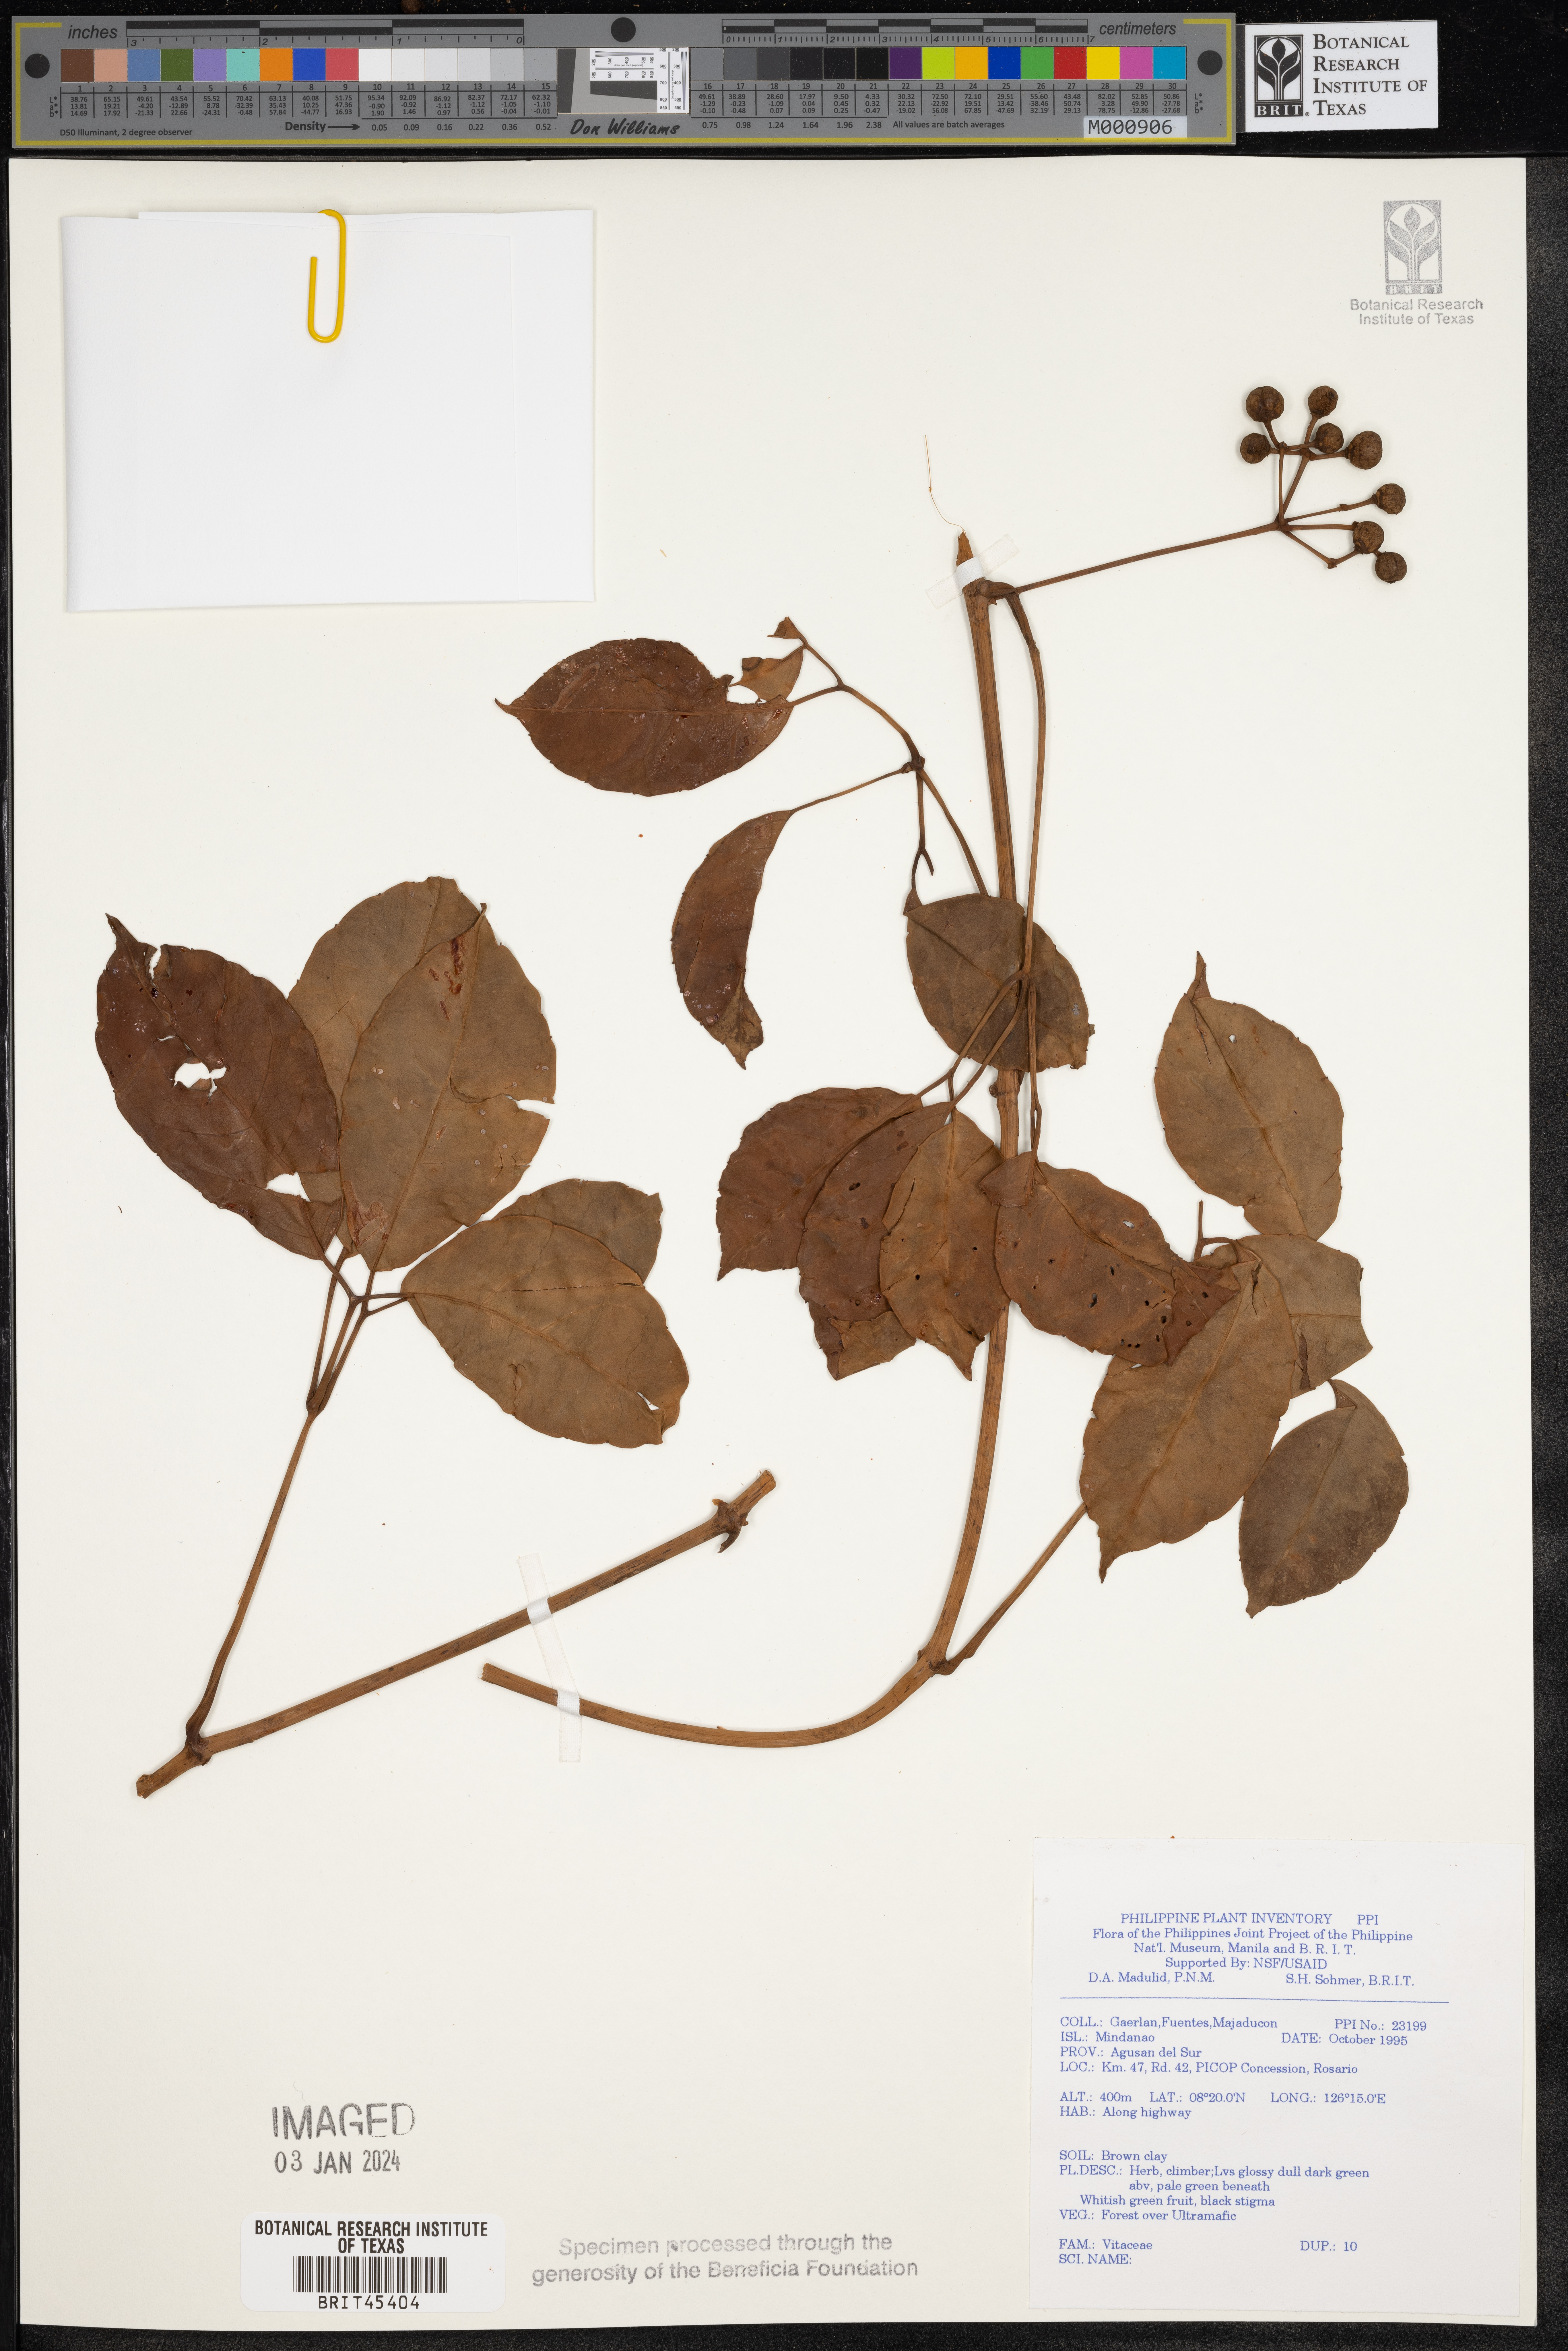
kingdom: Plantae
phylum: Tracheophyta
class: Magnoliopsida
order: Vitales
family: Vitaceae
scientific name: Vitaceae
